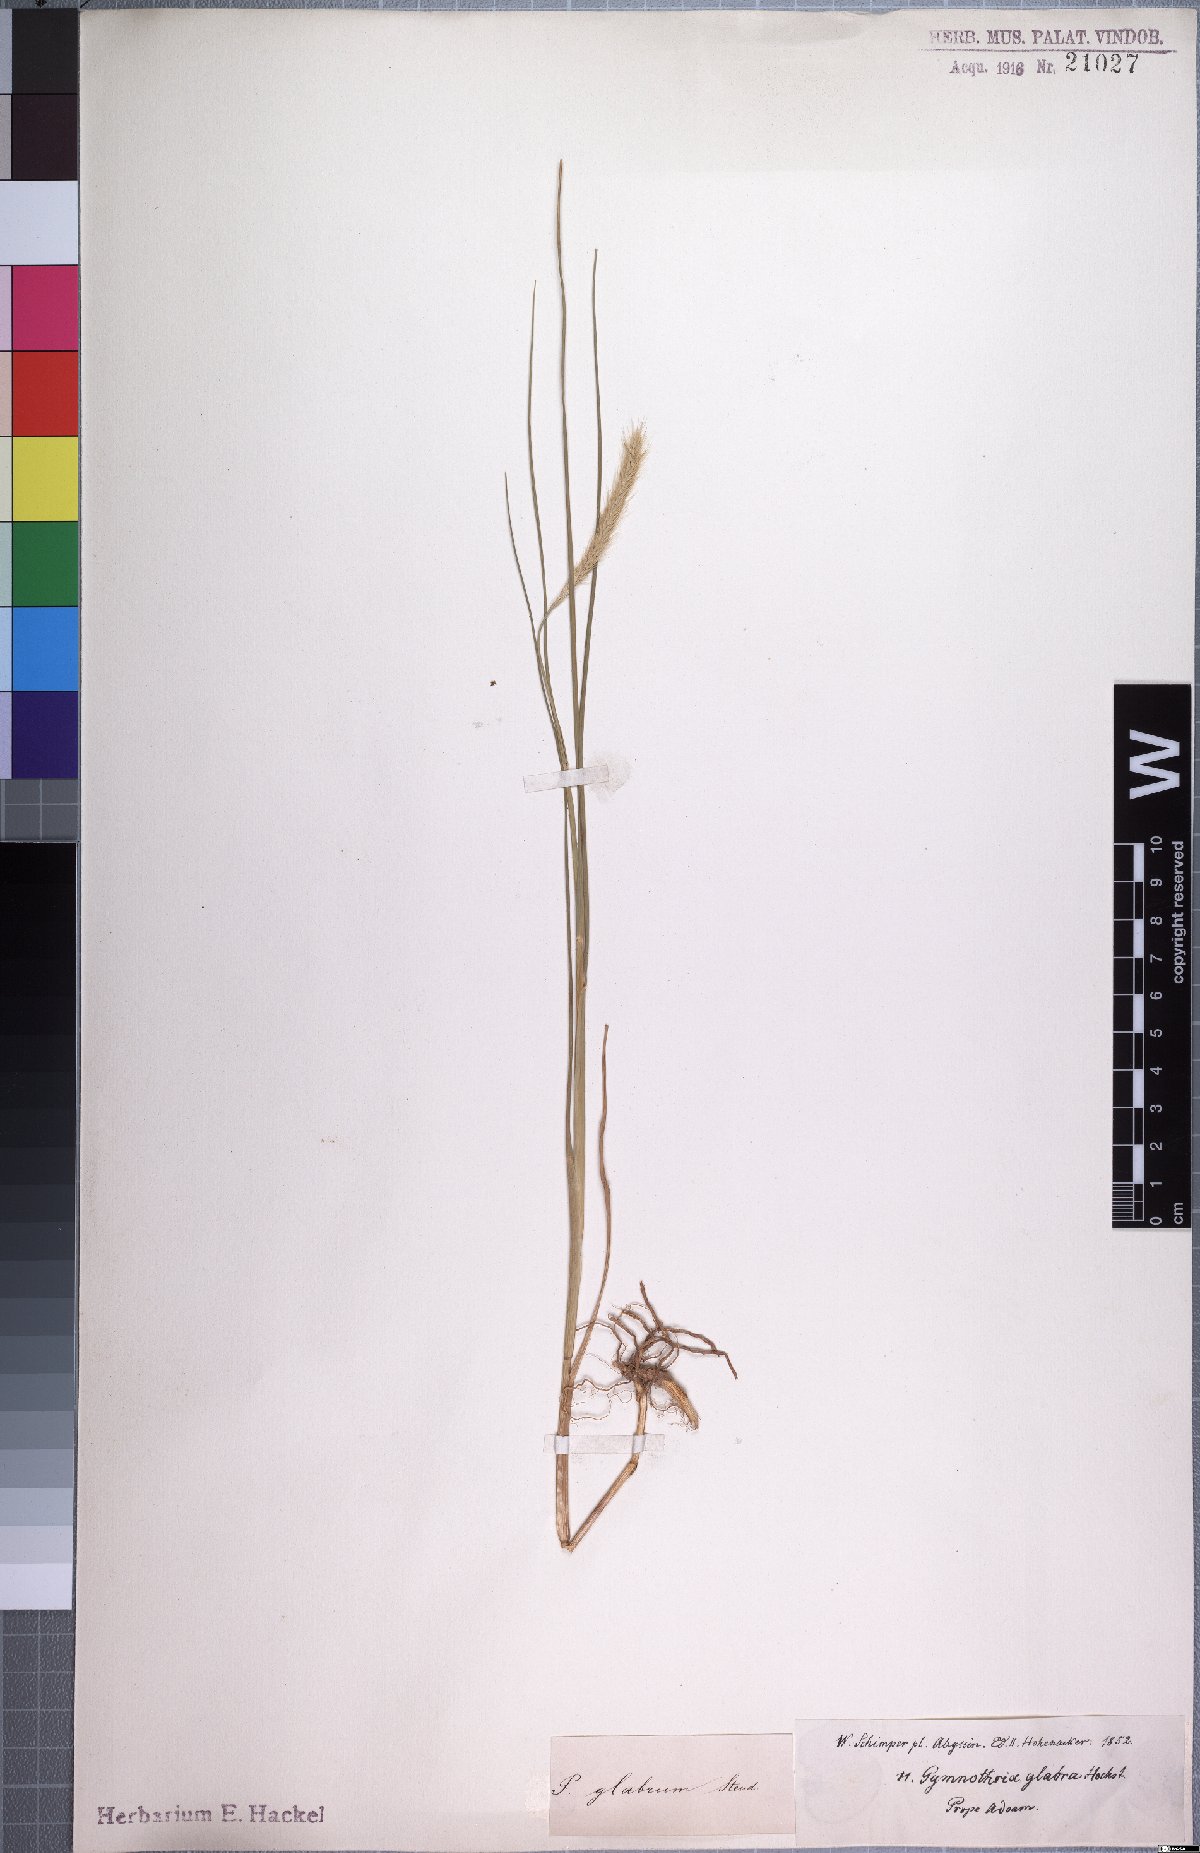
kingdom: Plantae
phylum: Tracheophyta
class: Liliopsida
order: Poales
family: Poaceae
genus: Cenchrus
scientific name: Cenchrus geniculatus
